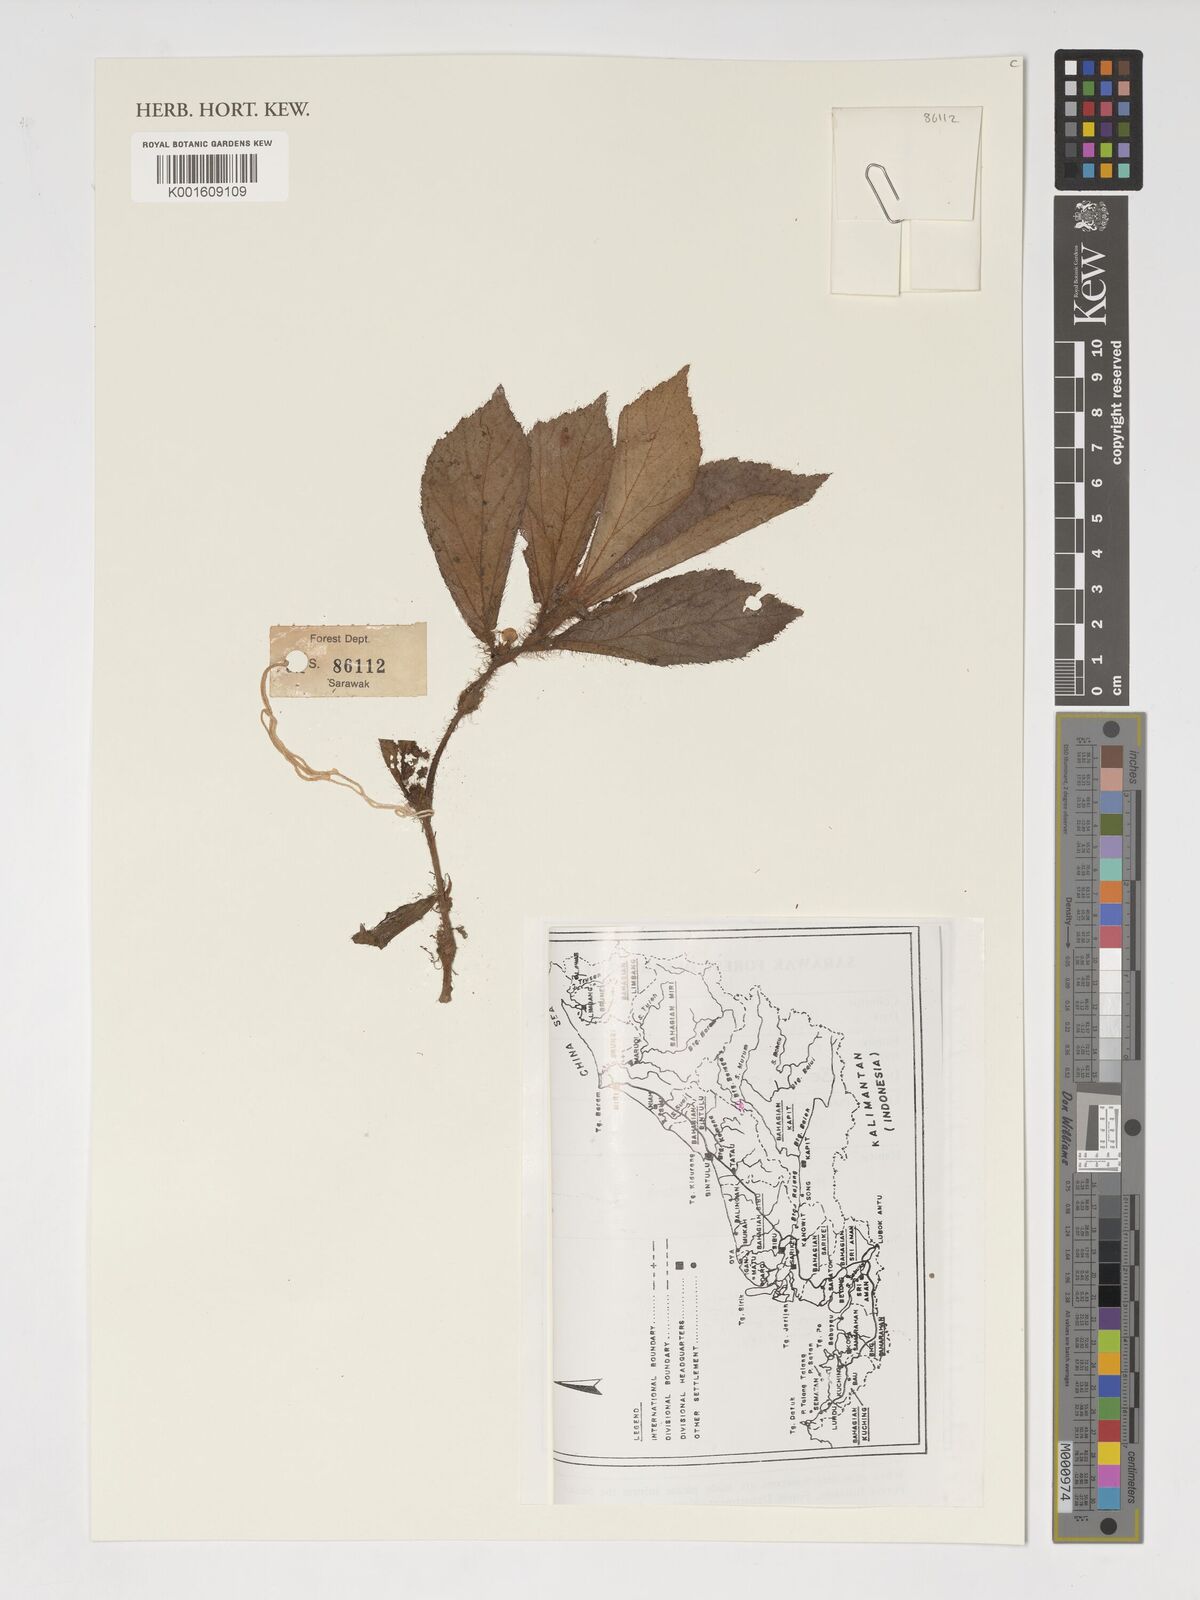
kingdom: Plantae
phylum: Tracheophyta
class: Magnoliopsida
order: Cucurbitales
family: Begoniaceae
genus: Begonia
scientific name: Begonia
